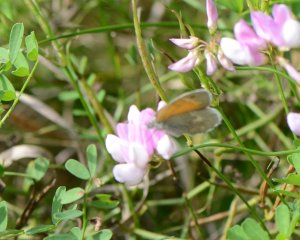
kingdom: Animalia
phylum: Arthropoda
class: Insecta
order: Lepidoptera
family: Nymphalidae
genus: Coenonympha
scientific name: Coenonympha tullia
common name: Large Heath
